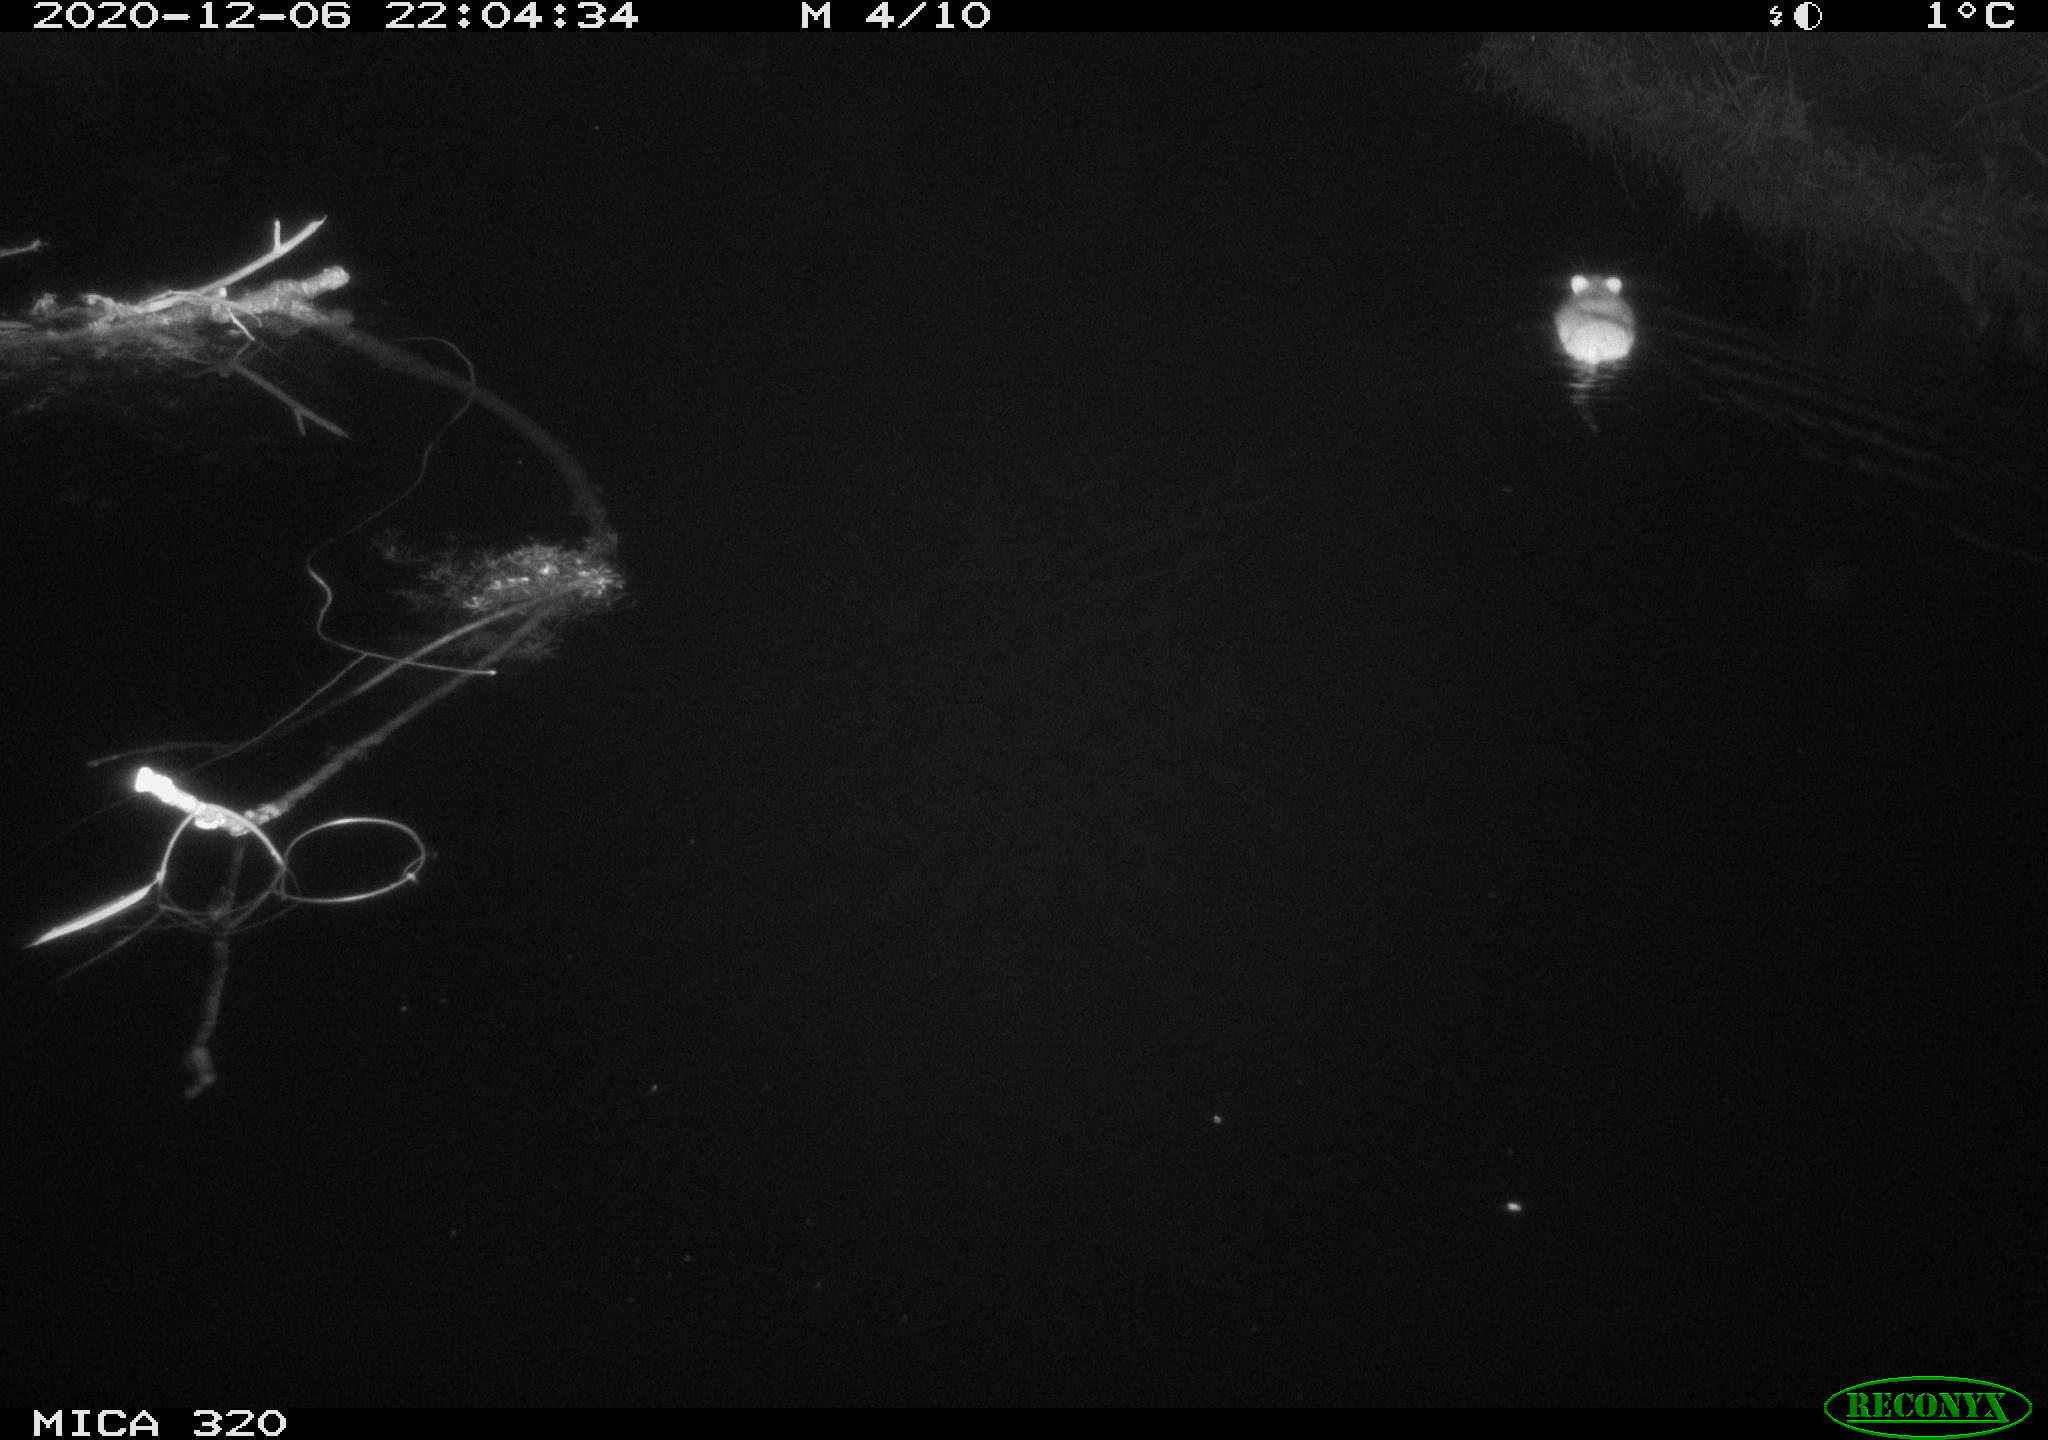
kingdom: Animalia
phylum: Chordata
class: Mammalia
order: Rodentia
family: Muridae
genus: Rattus
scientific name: Rattus norvegicus
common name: Brown rat
